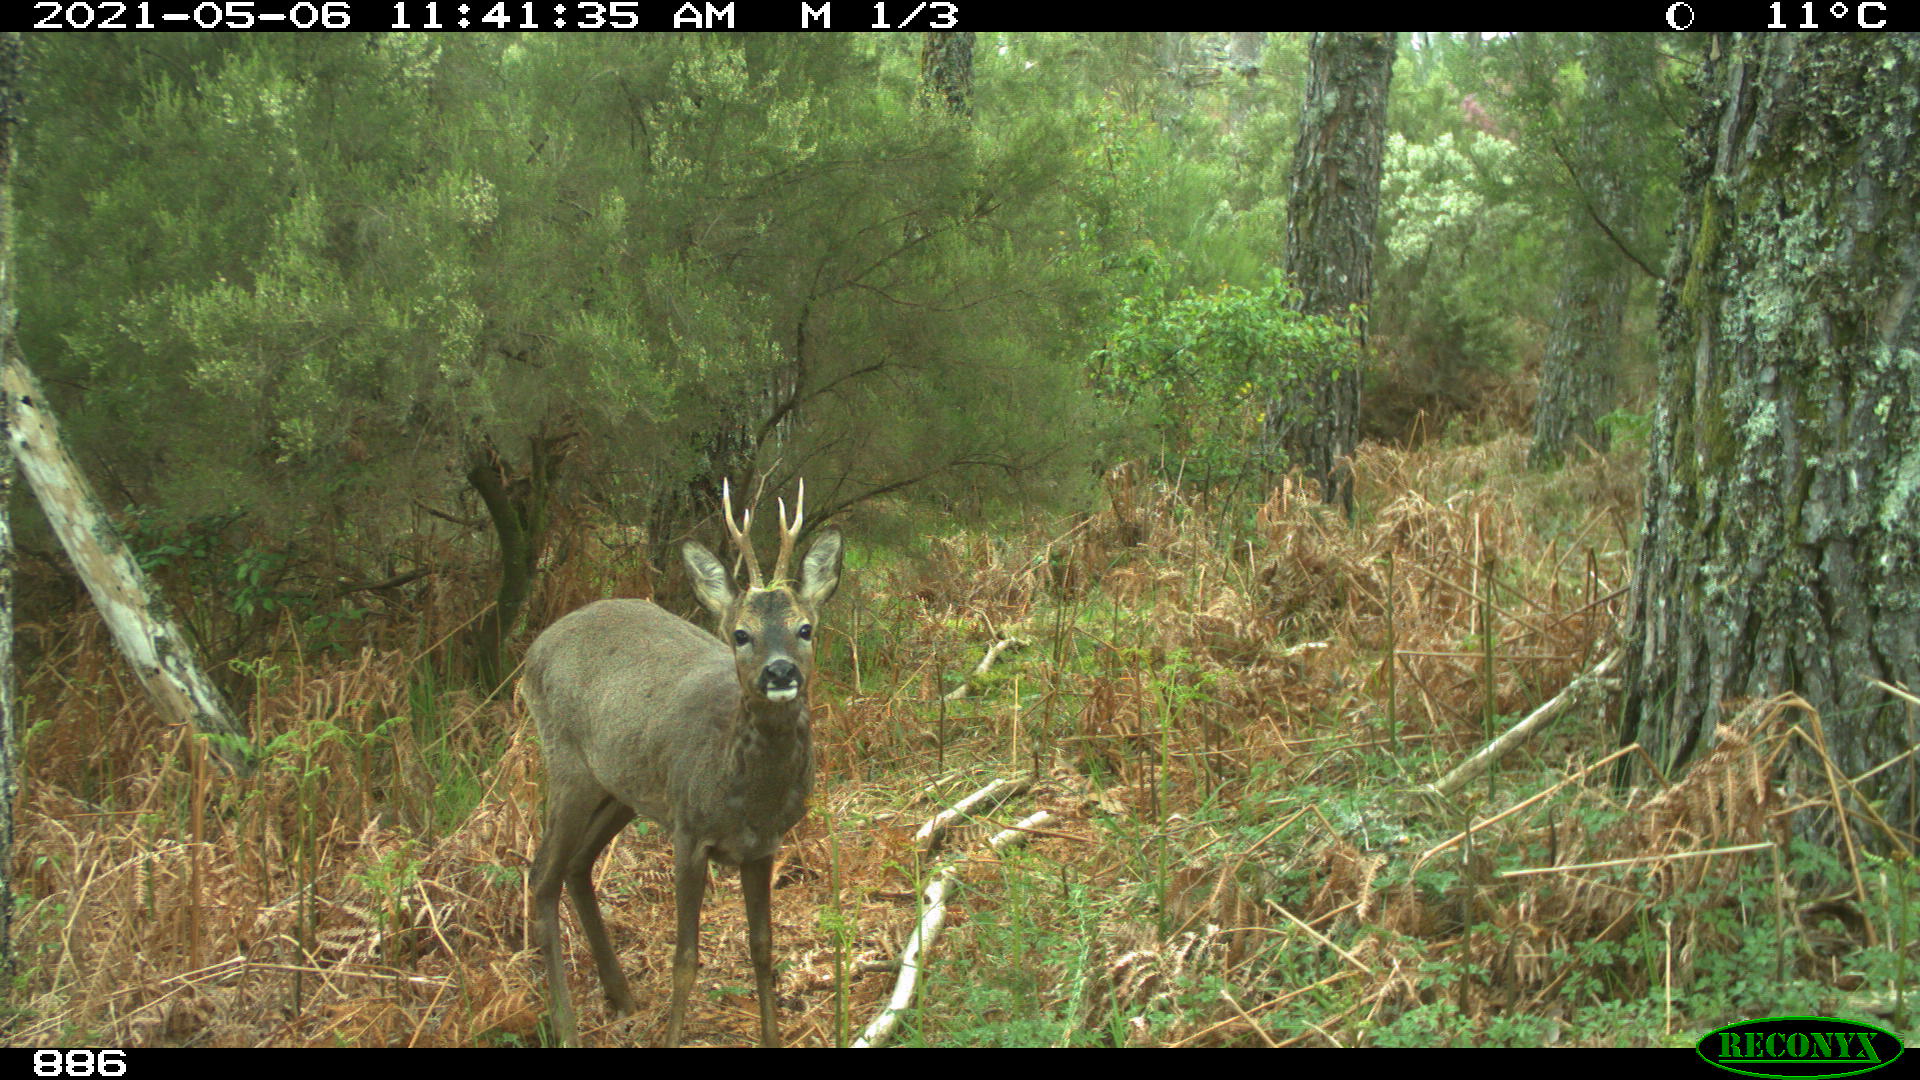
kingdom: Animalia
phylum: Chordata
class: Mammalia
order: Artiodactyla
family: Cervidae
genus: Capreolus
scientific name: Capreolus capreolus
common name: Western roe deer
